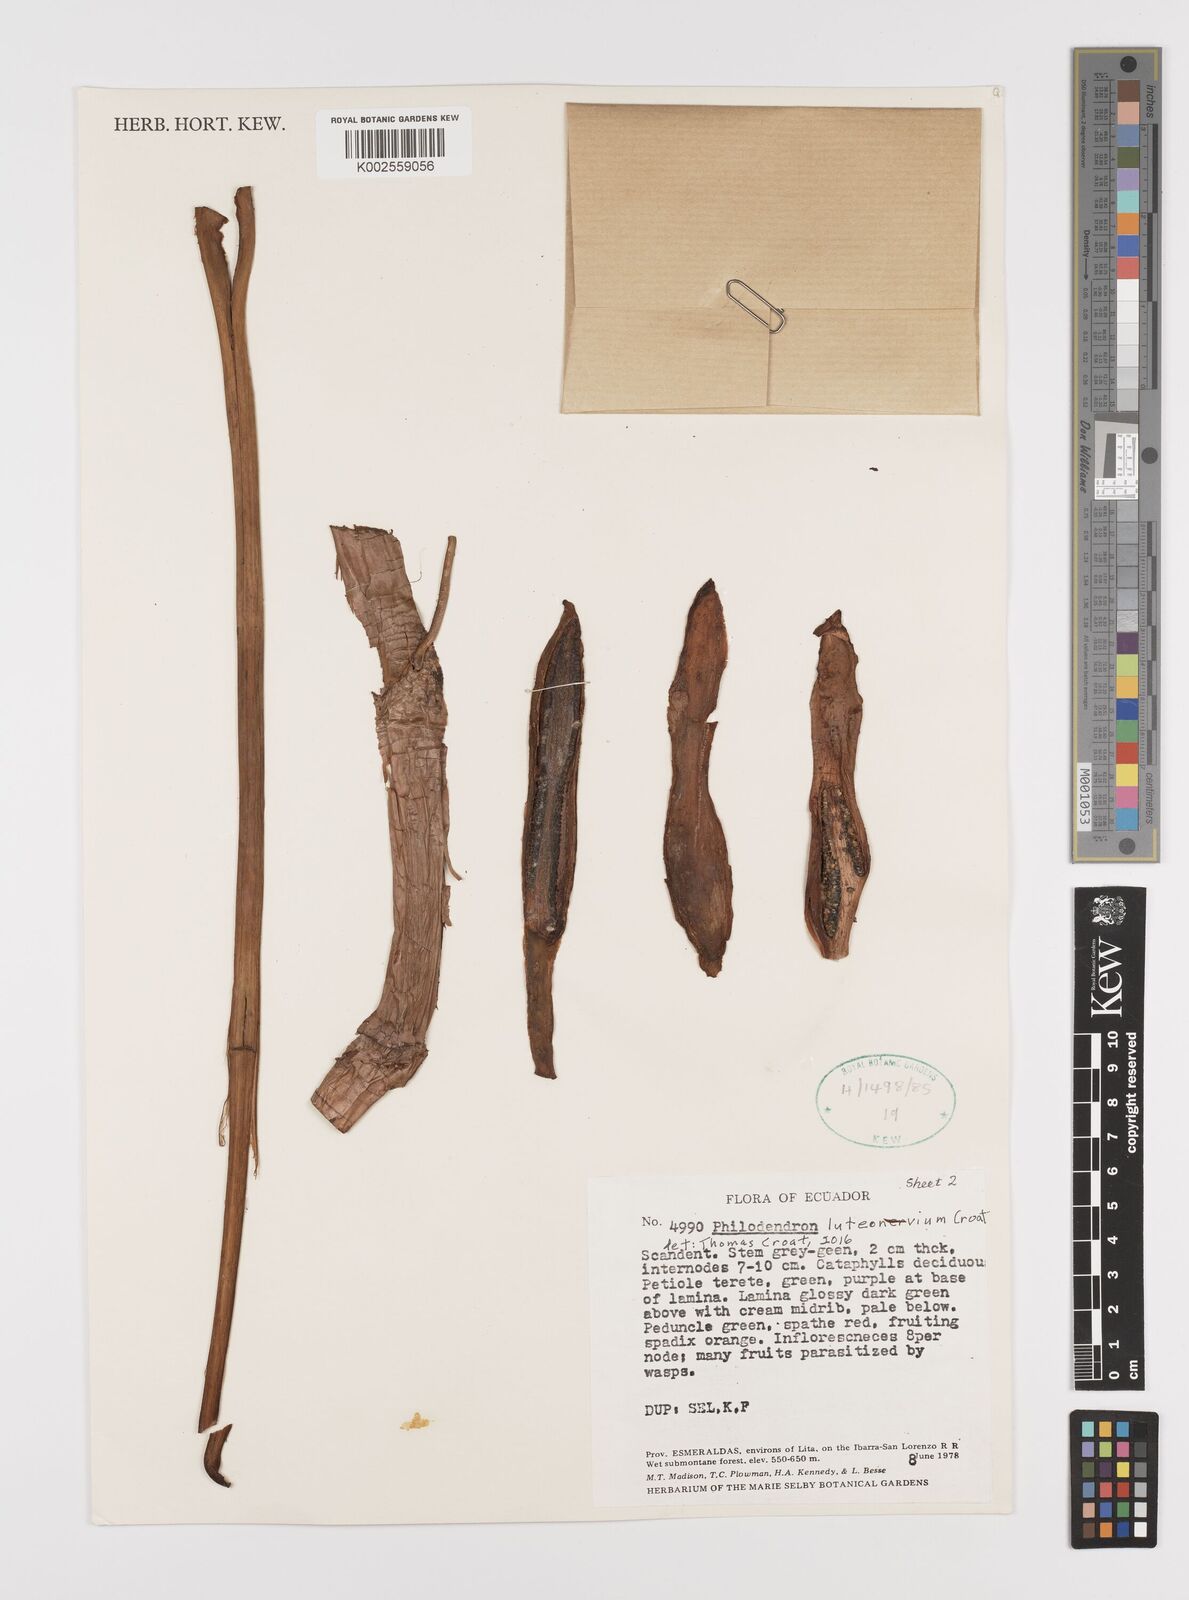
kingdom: Plantae
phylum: Tracheophyta
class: Liliopsida
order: Alismatales
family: Araceae
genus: Philodendron
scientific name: Philodendron luteonervium
